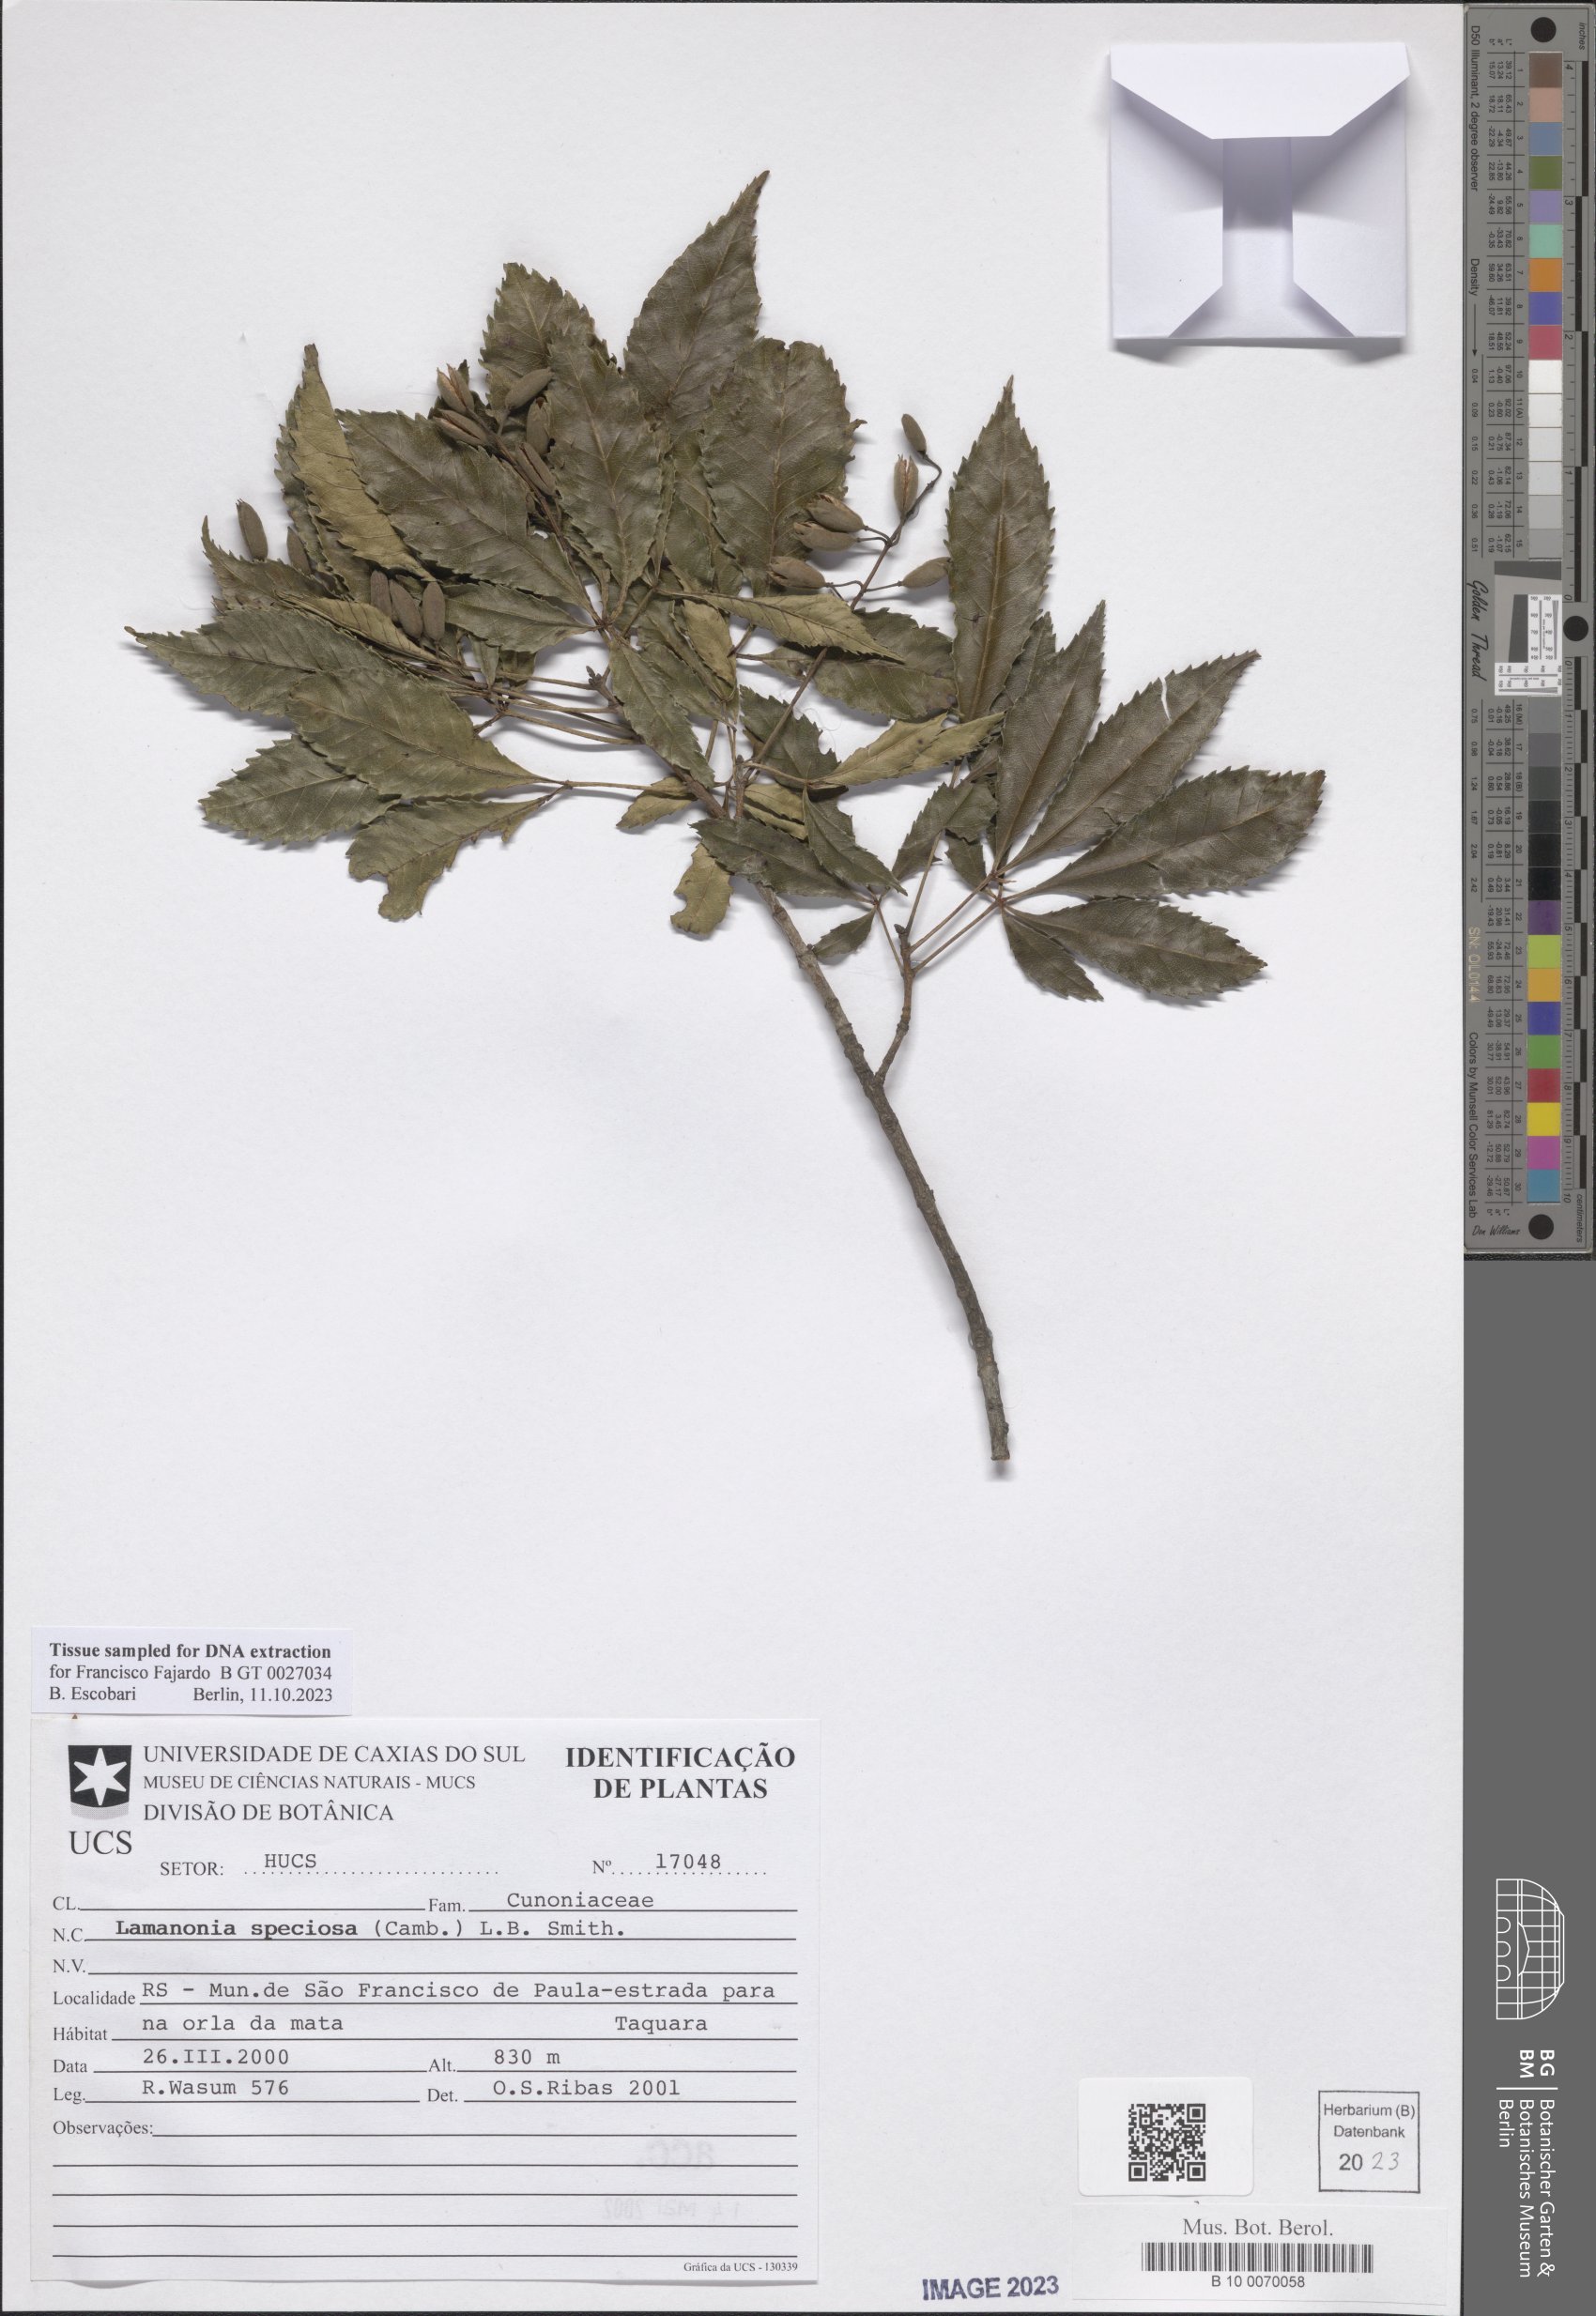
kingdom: Plantae
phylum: Tracheophyta
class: Magnoliopsida
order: Oxalidales
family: Cunoniaceae
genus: Lamanonia
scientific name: Lamanonia speciosa
